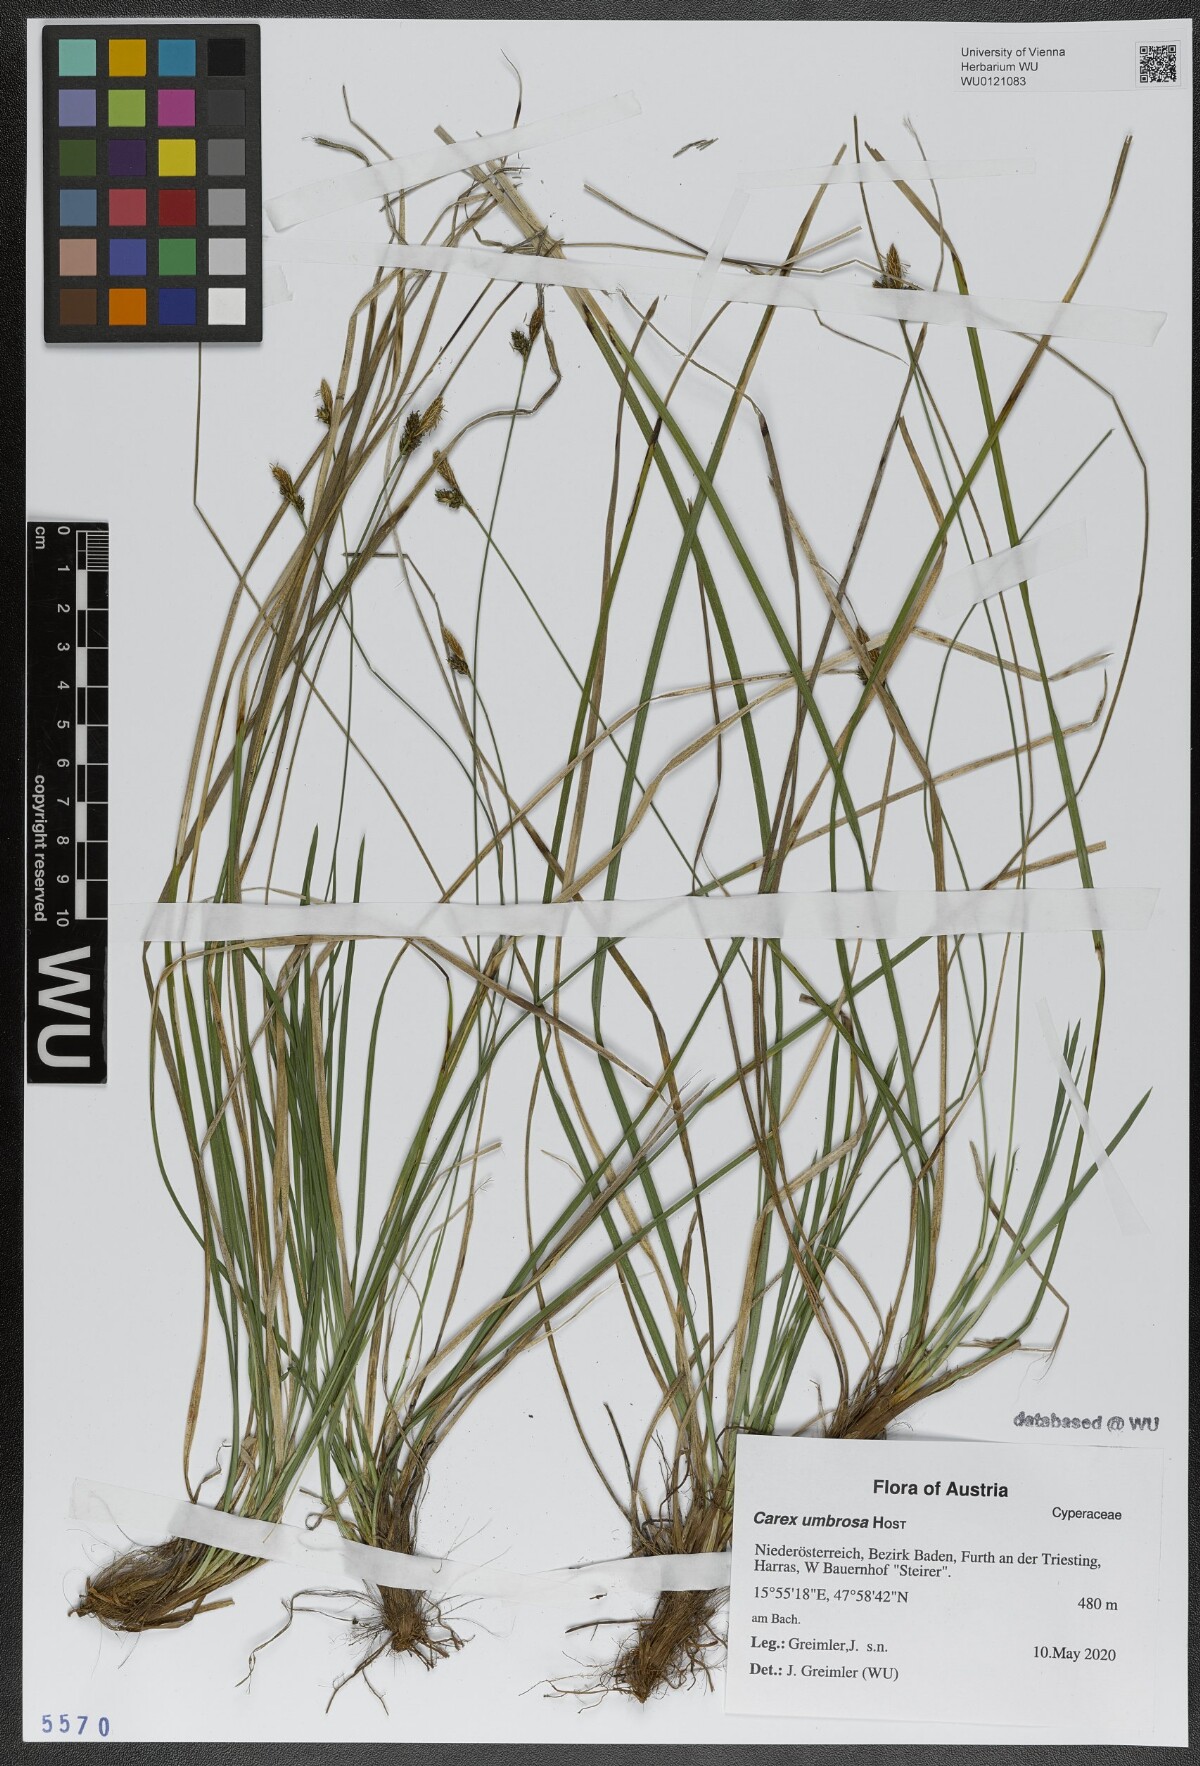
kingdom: Plantae
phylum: Tracheophyta
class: Liliopsida
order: Poales
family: Cyperaceae
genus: Carex
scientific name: Carex umbrosa
